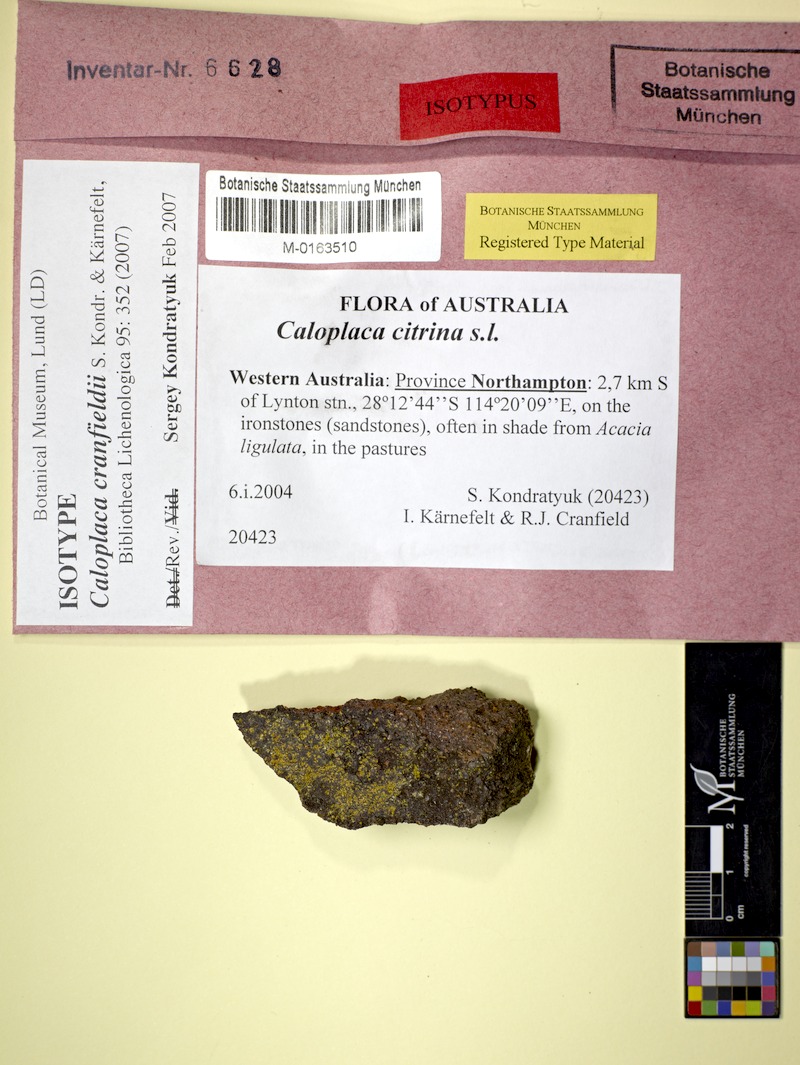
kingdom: Fungi
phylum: Ascomycota
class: Lecanoromycetes
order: Teloschistales
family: Teloschistaceae
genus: Flavoplaca
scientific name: Flavoplaca cranfieldii
